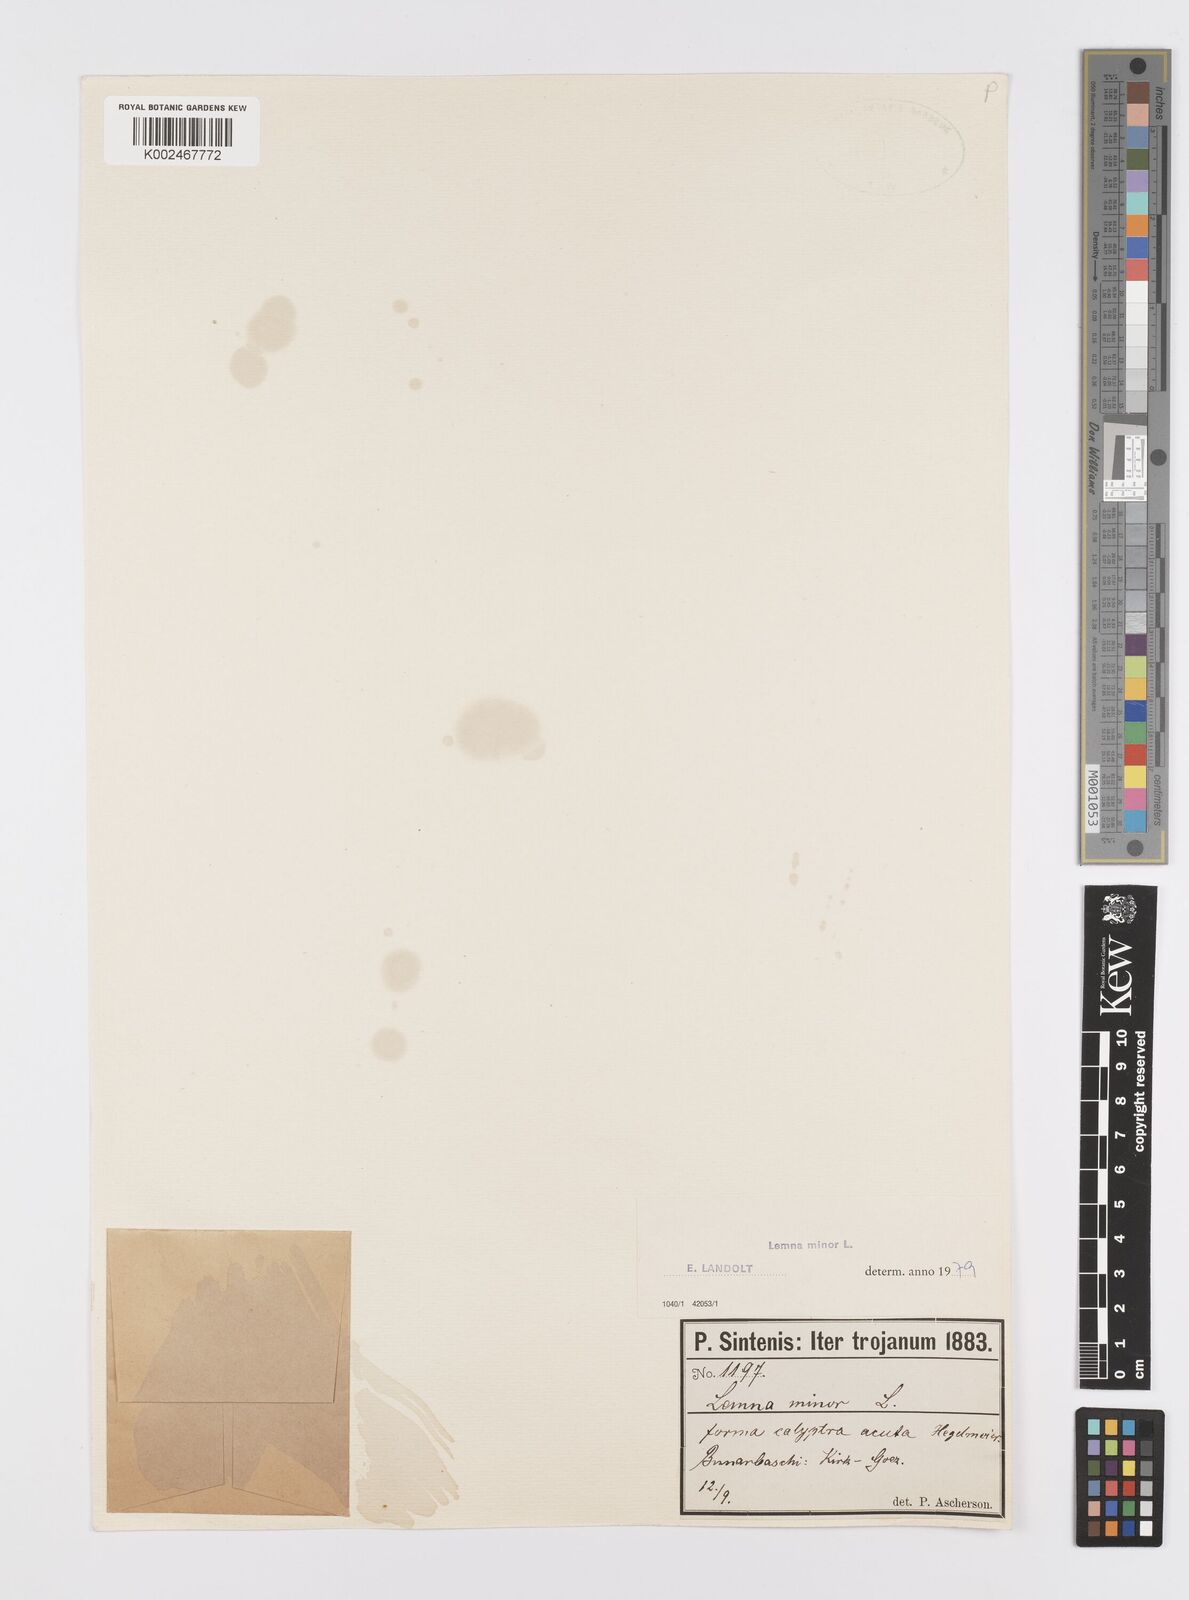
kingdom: Plantae
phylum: Tracheophyta
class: Liliopsida
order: Alismatales
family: Araceae
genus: Lemna
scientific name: Lemna minor
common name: Common duckweed
